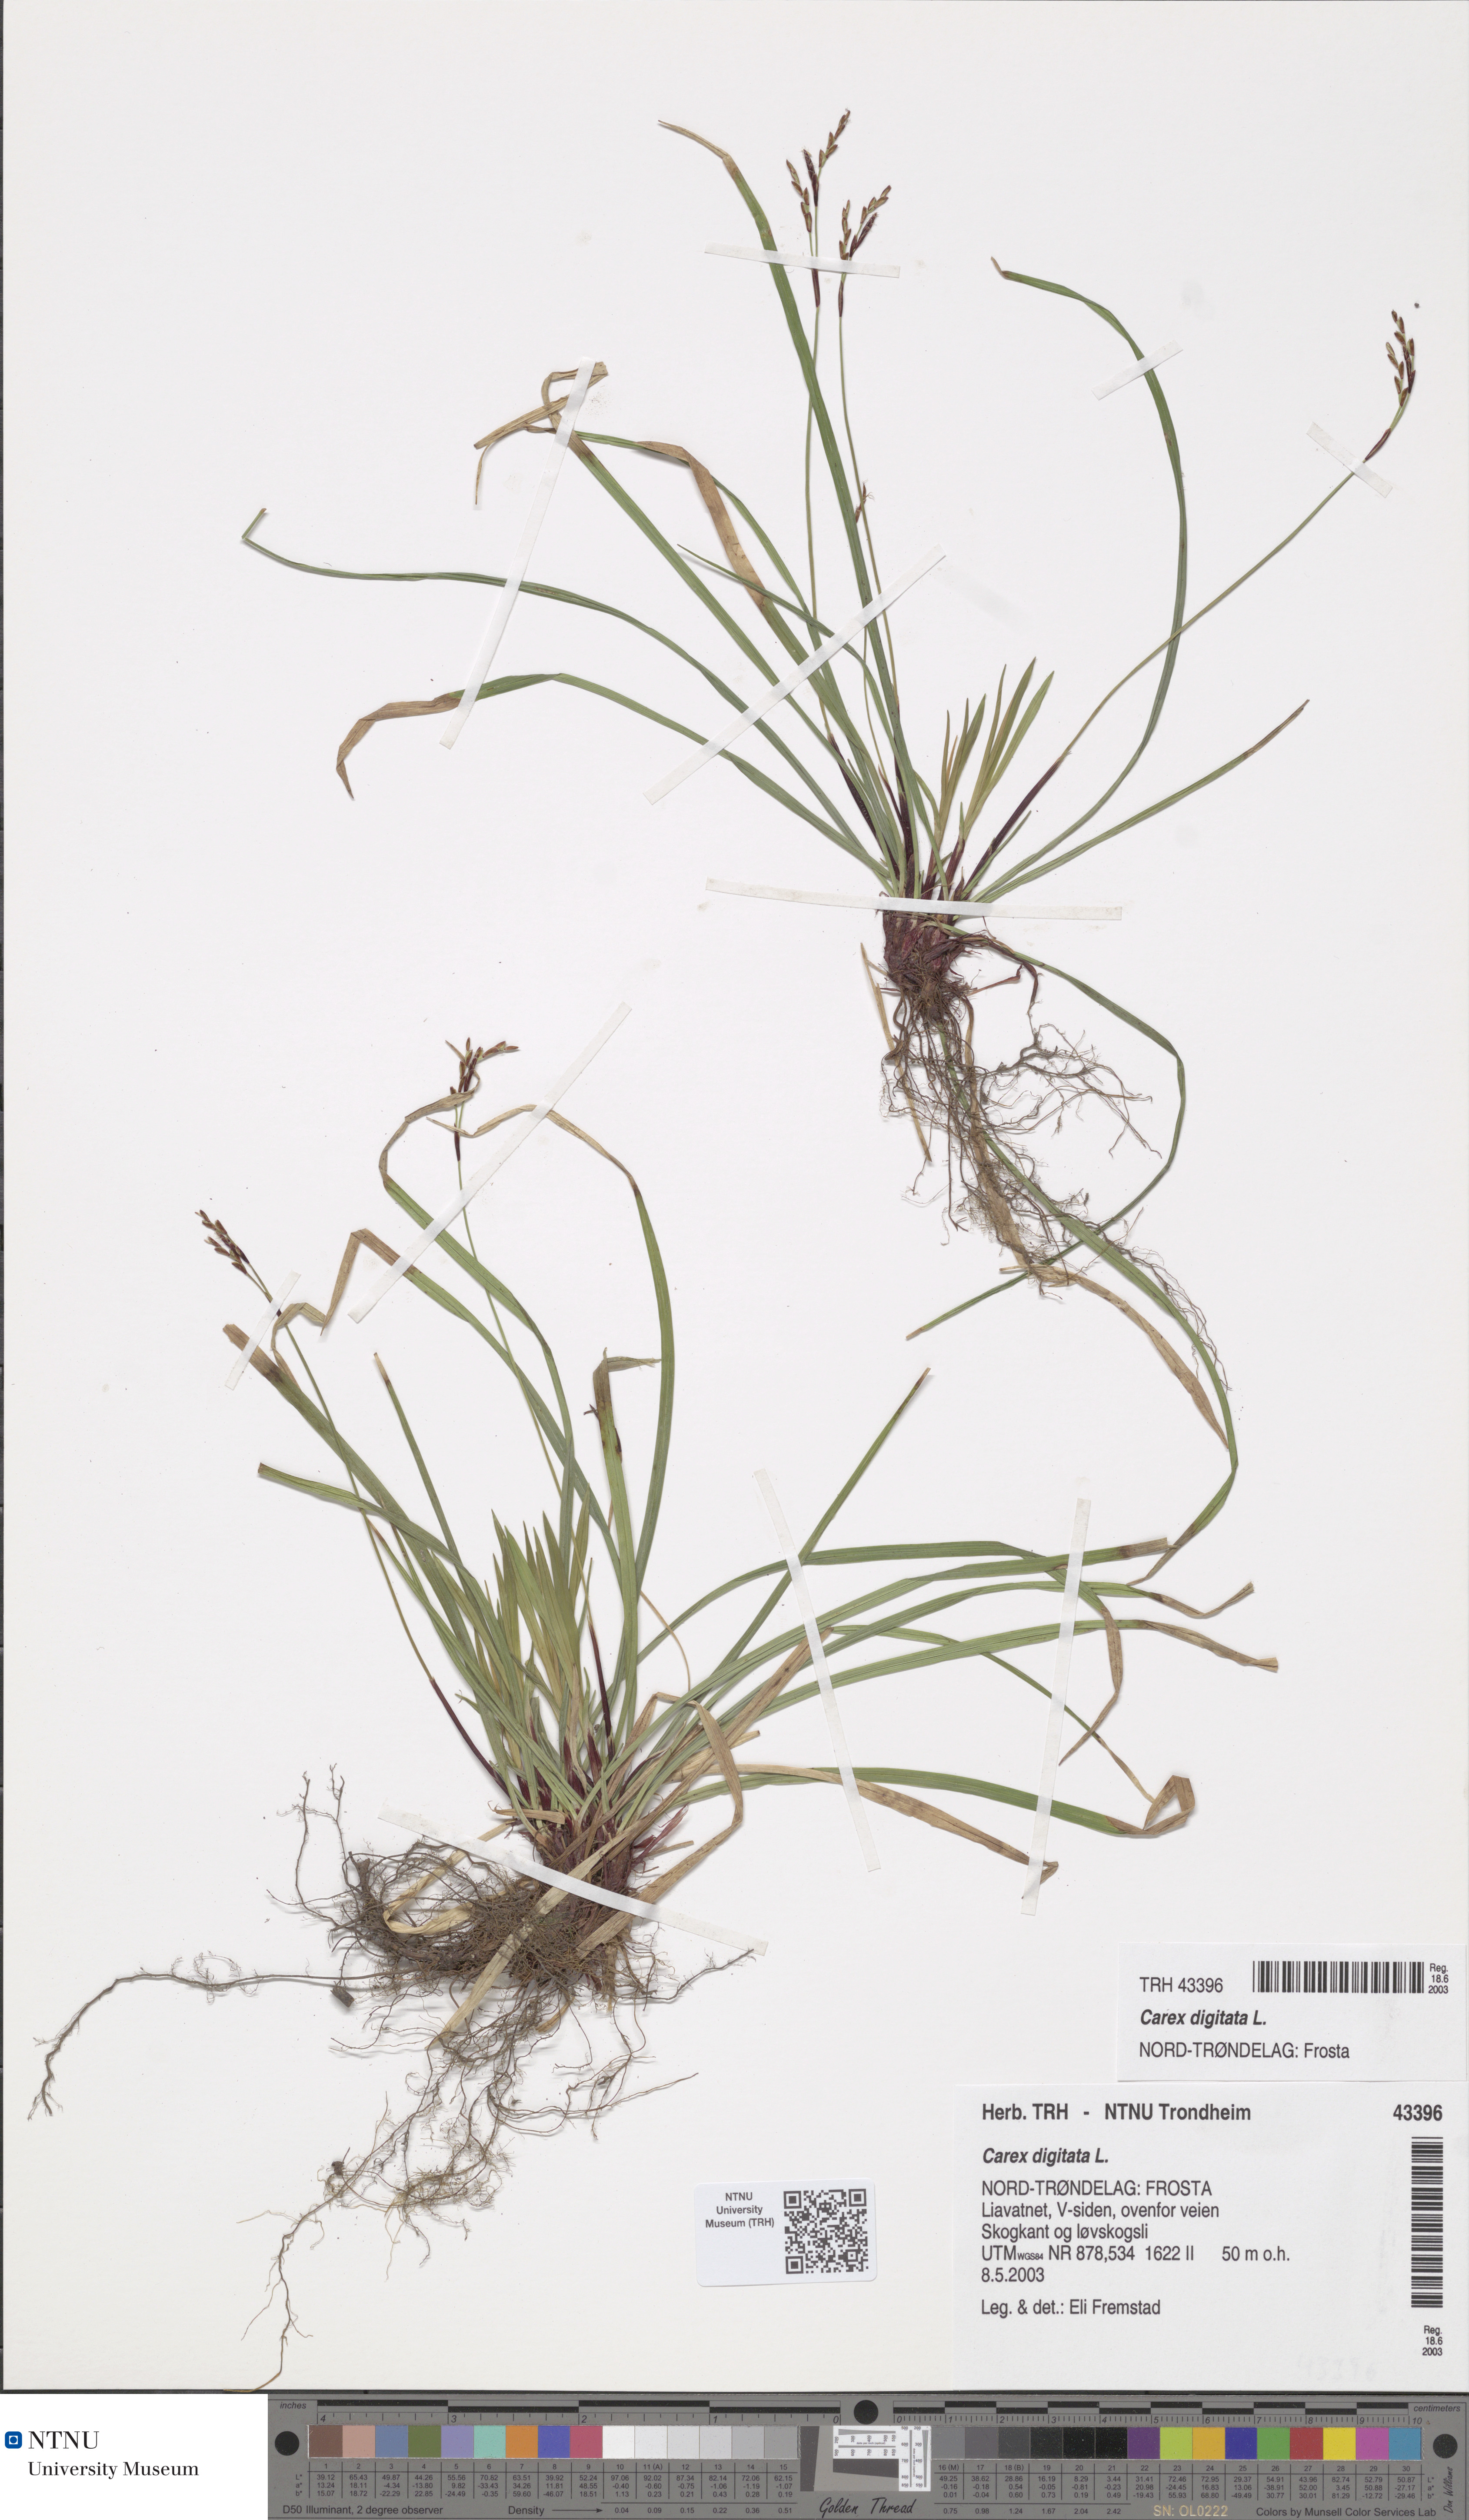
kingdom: Plantae
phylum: Tracheophyta
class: Liliopsida
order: Poales
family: Cyperaceae
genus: Carex
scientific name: Carex digitata
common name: Fingered sedge
